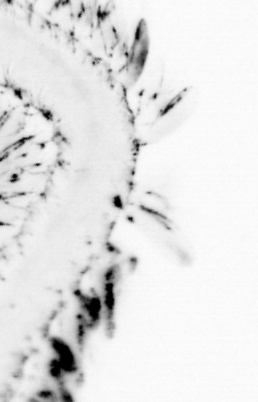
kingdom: Animalia
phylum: Annelida
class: Polychaeta
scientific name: Polychaeta
